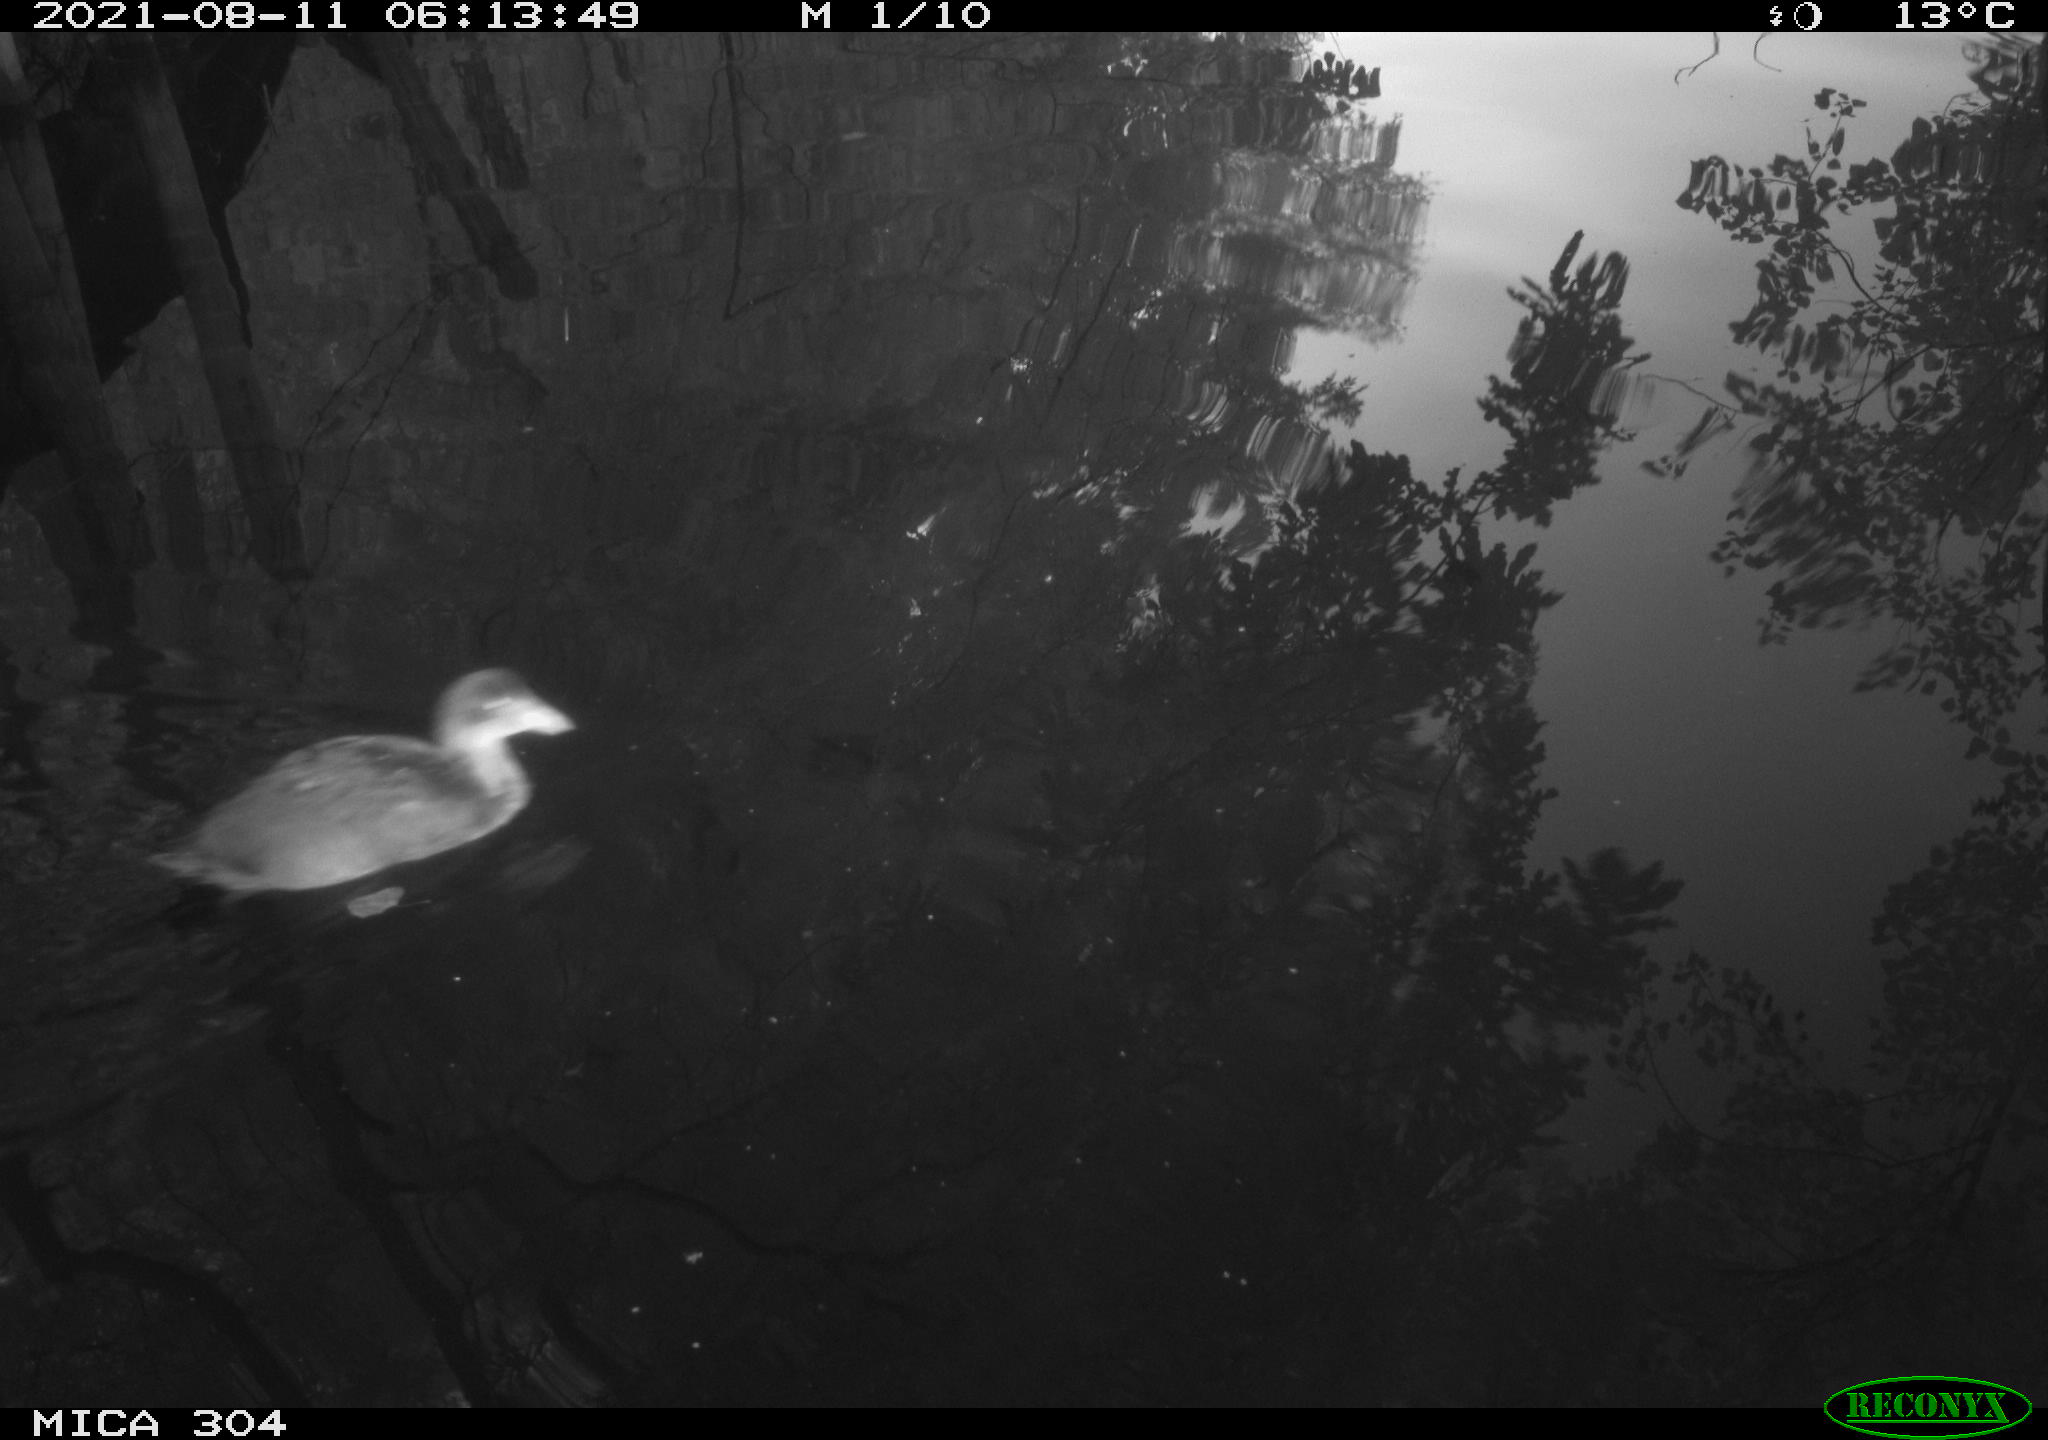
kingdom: Animalia
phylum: Chordata
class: Aves
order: Gruiformes
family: Rallidae
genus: Gallinula
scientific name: Gallinula chloropus
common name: Common moorhen
